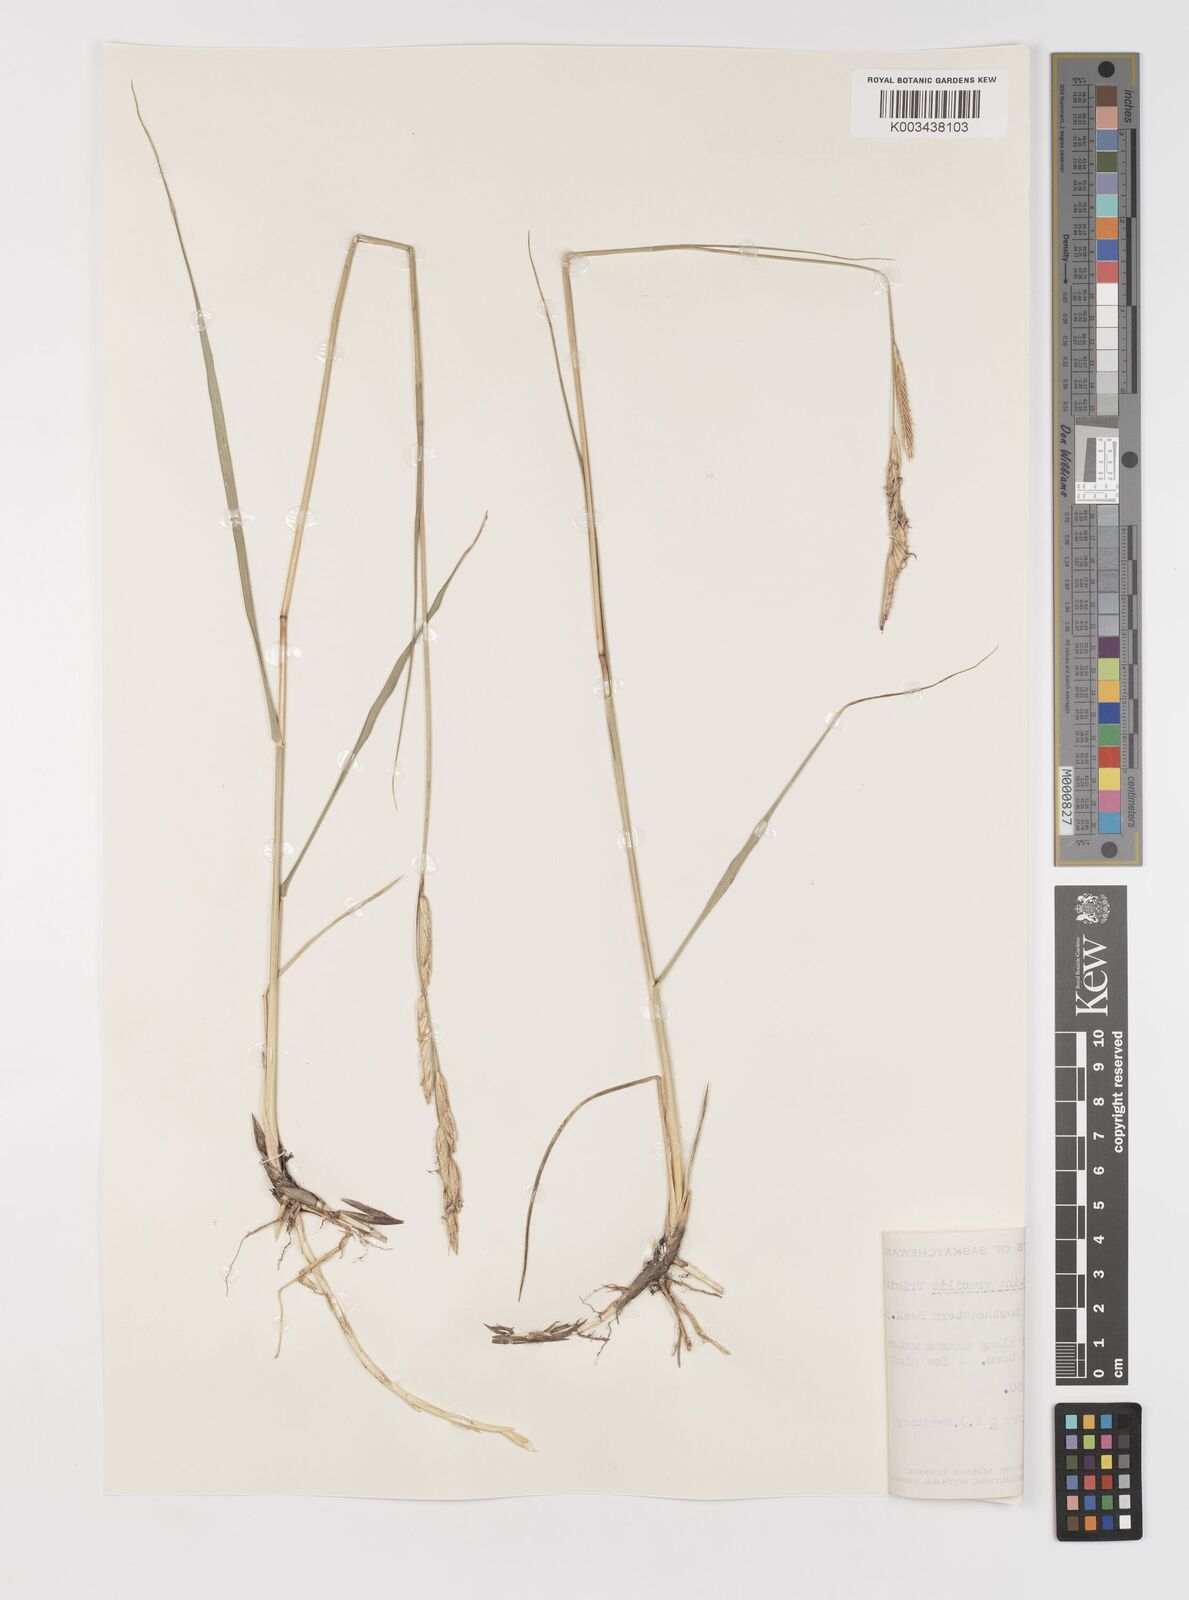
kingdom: Plantae
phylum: Tracheophyta
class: Liliopsida
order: Poales
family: Poaceae
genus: Sporobolus
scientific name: Sporobolus hookerianus
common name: Alkali cordgrass
